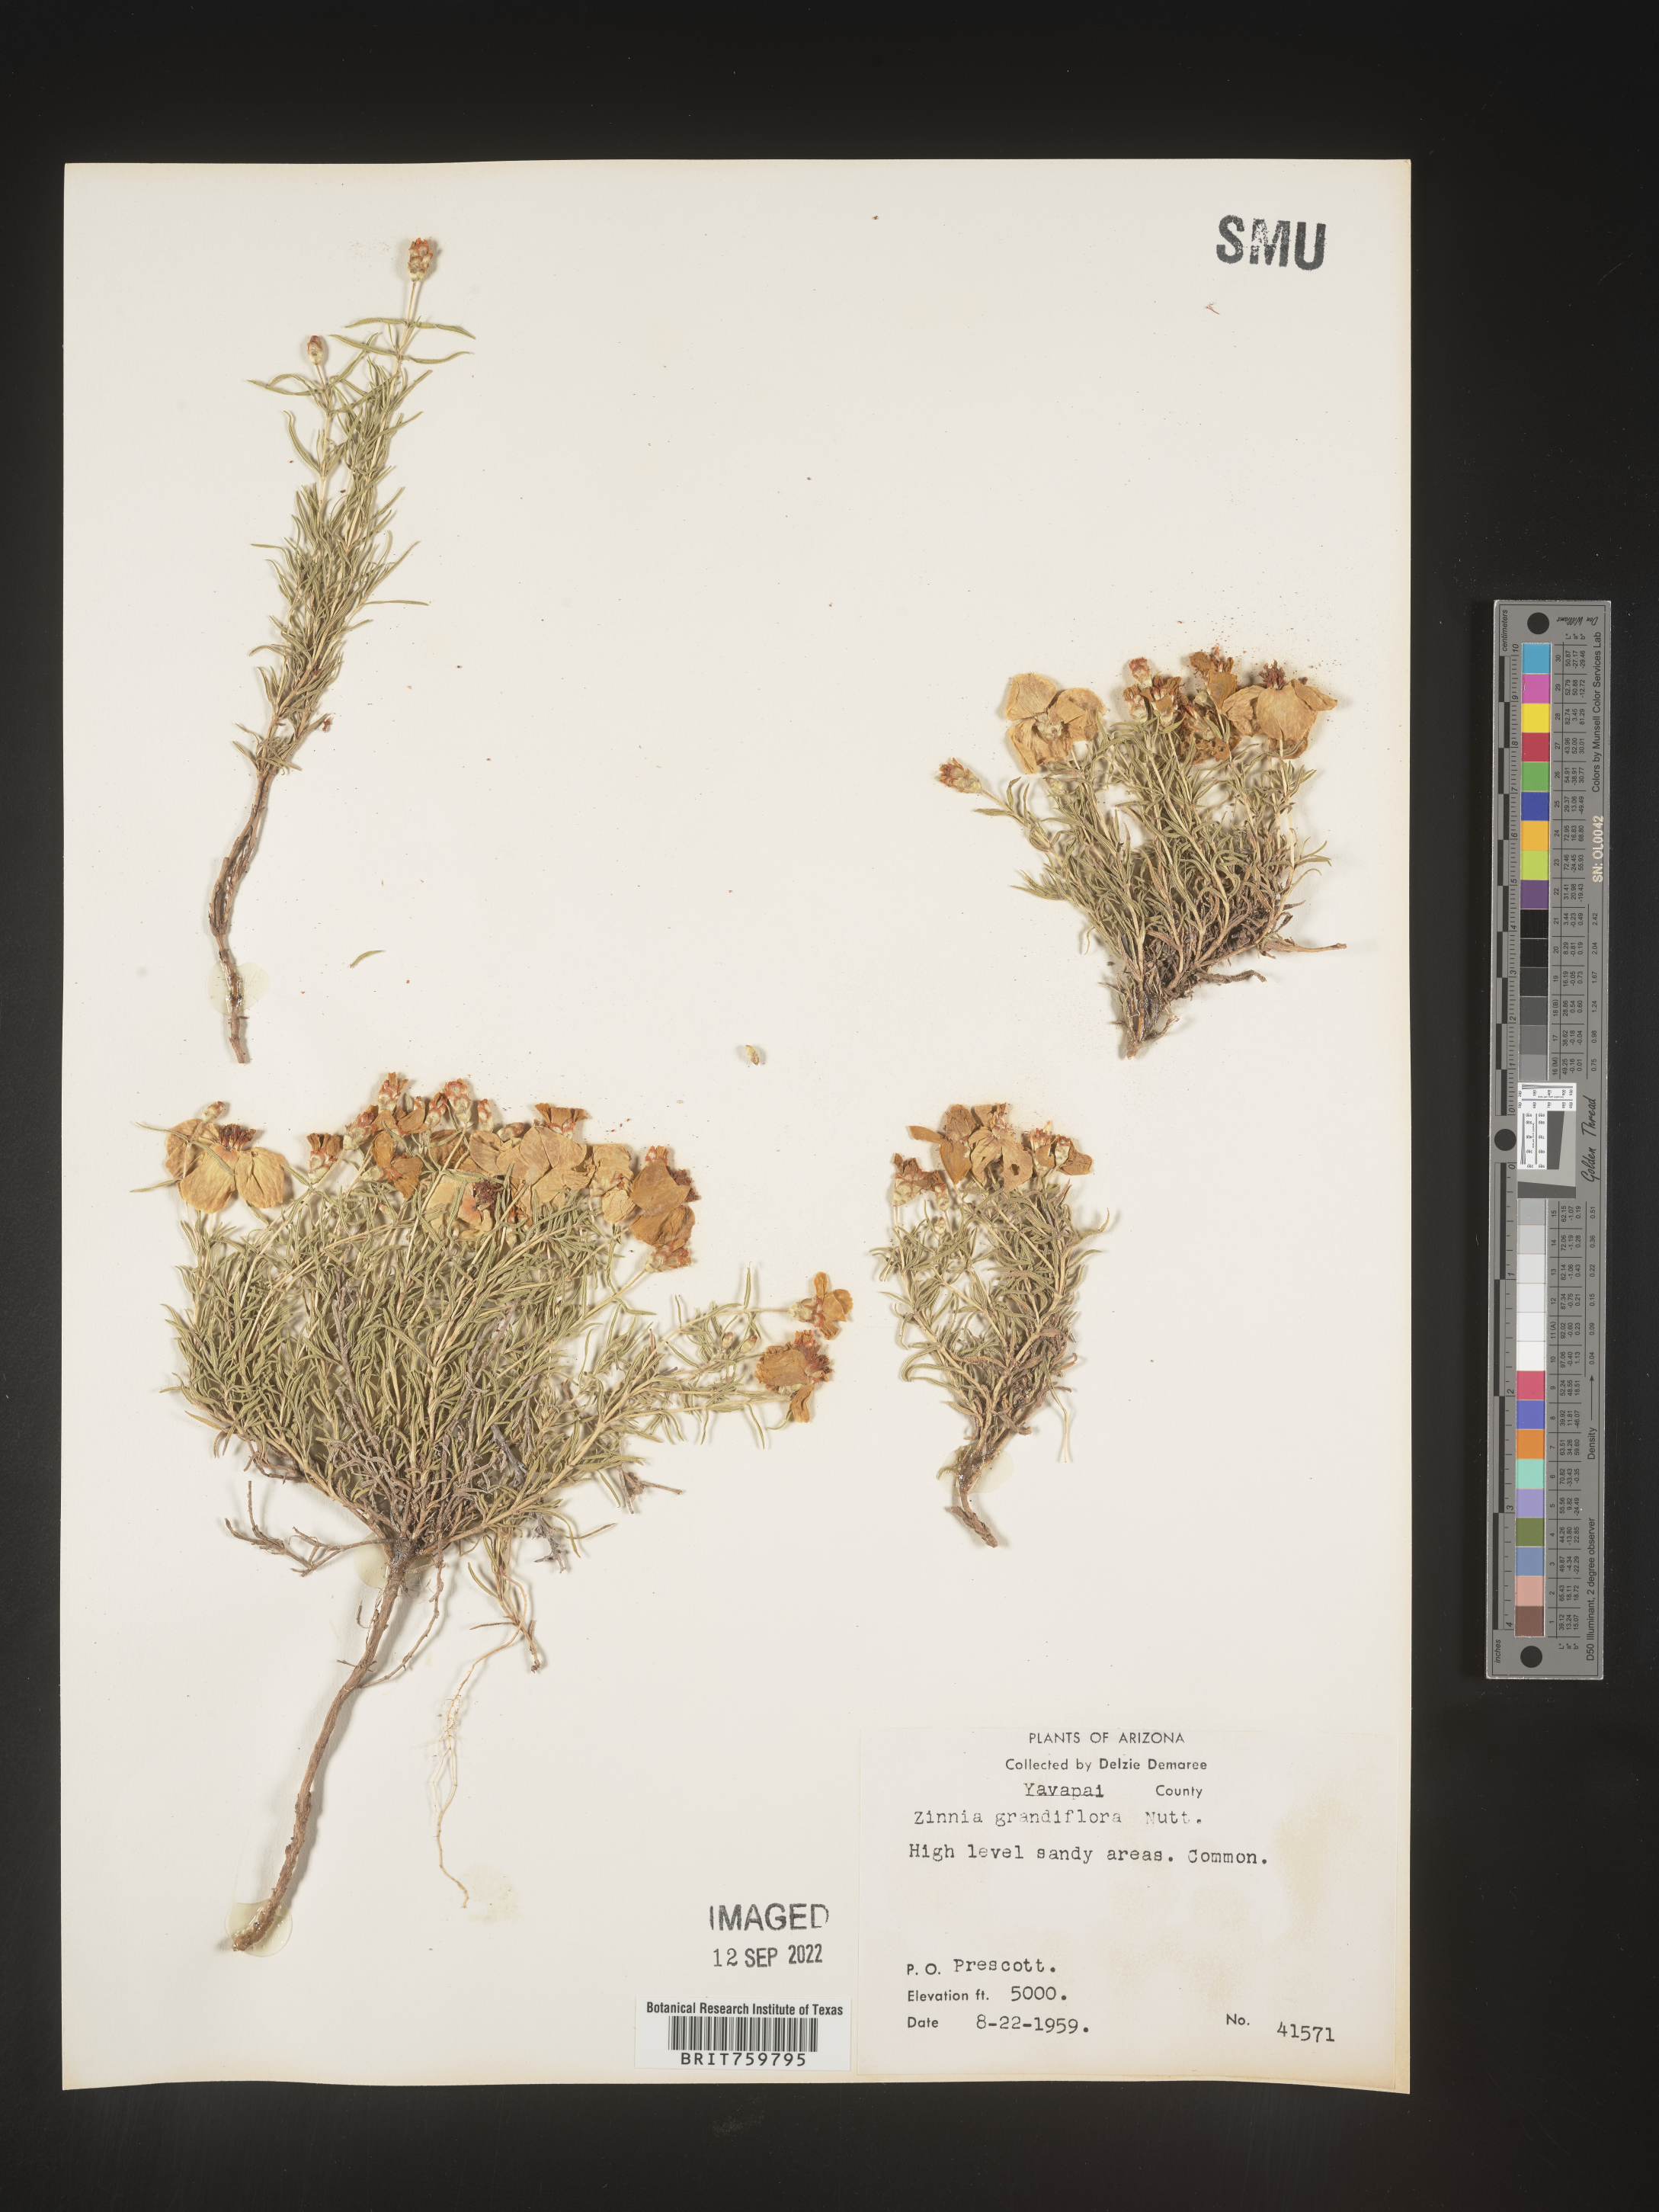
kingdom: Plantae
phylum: Tracheophyta
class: Magnoliopsida
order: Asterales
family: Asteraceae
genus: Zinnia
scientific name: Zinnia grandiflora
